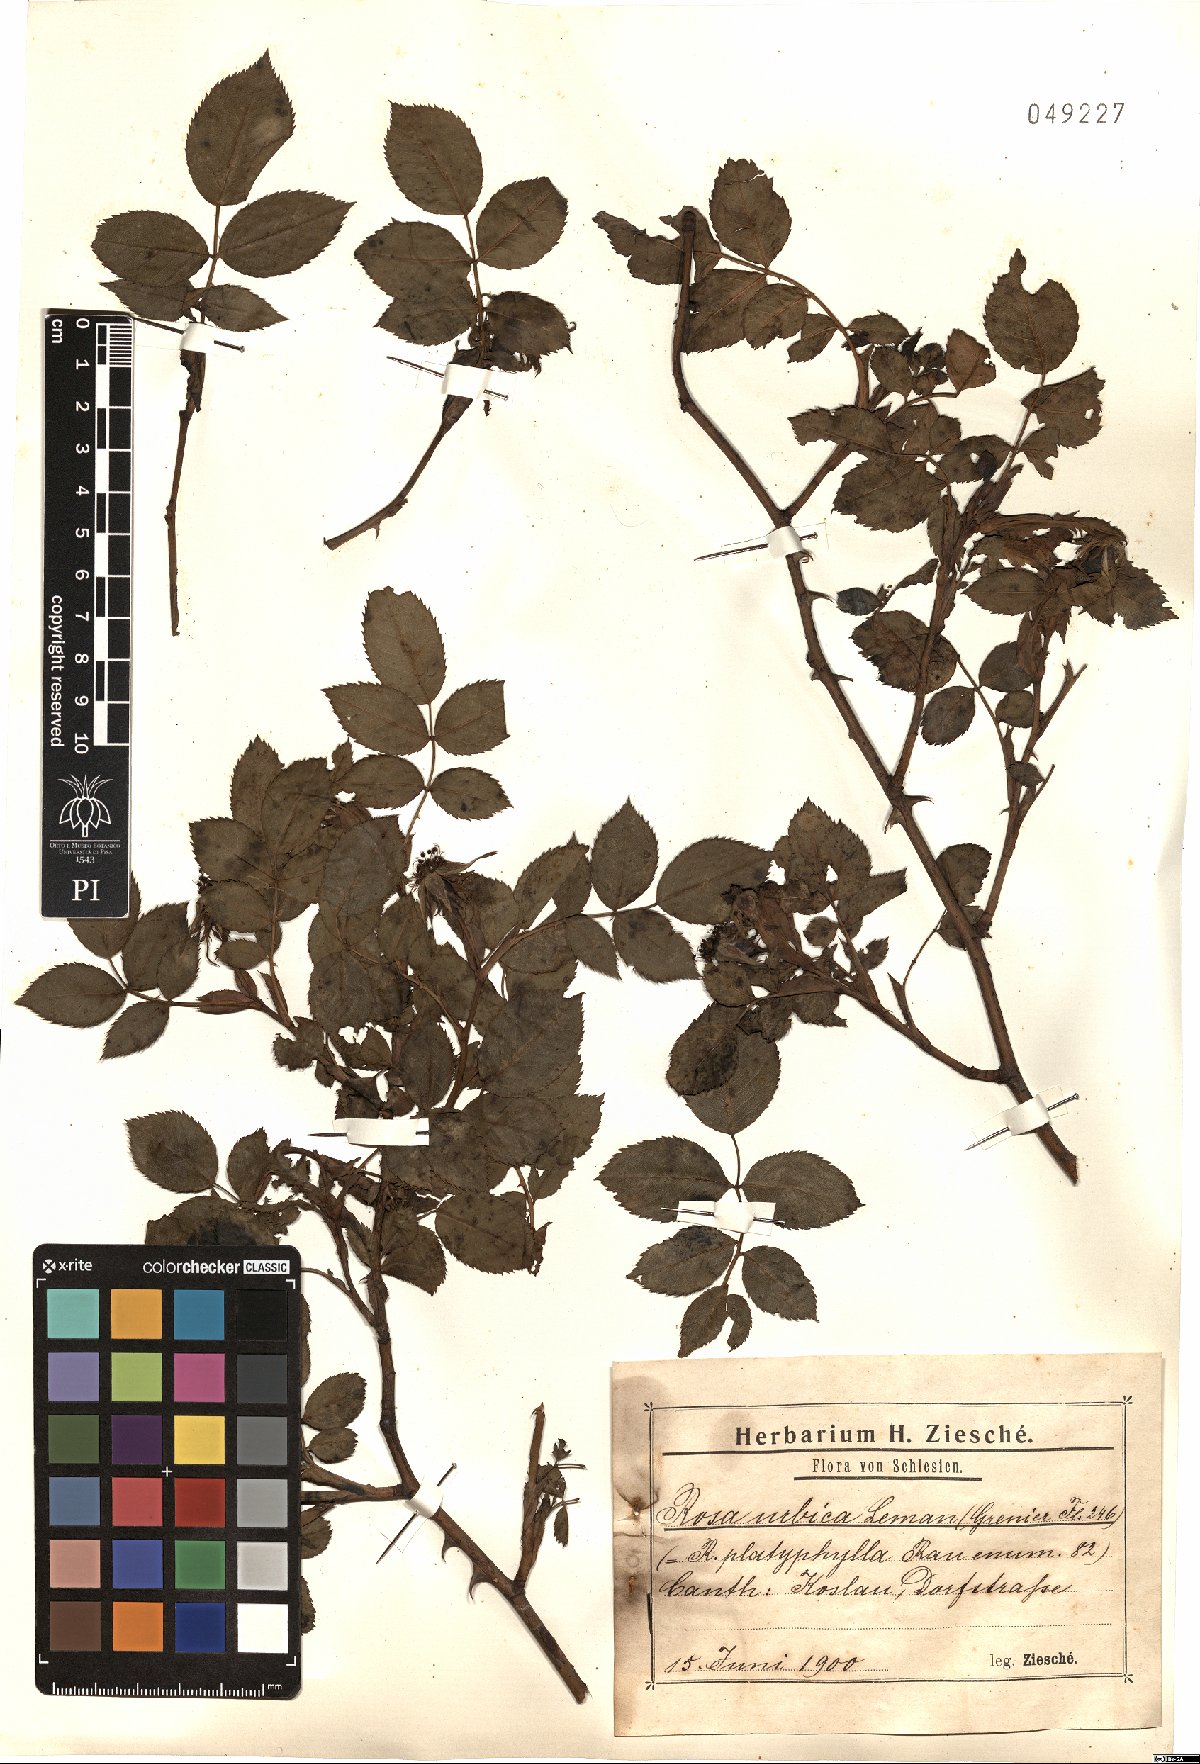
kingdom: Plantae
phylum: Tracheophyta
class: Magnoliopsida
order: Rosales
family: Rosaceae
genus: Rosa
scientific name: Rosa corymbifera
